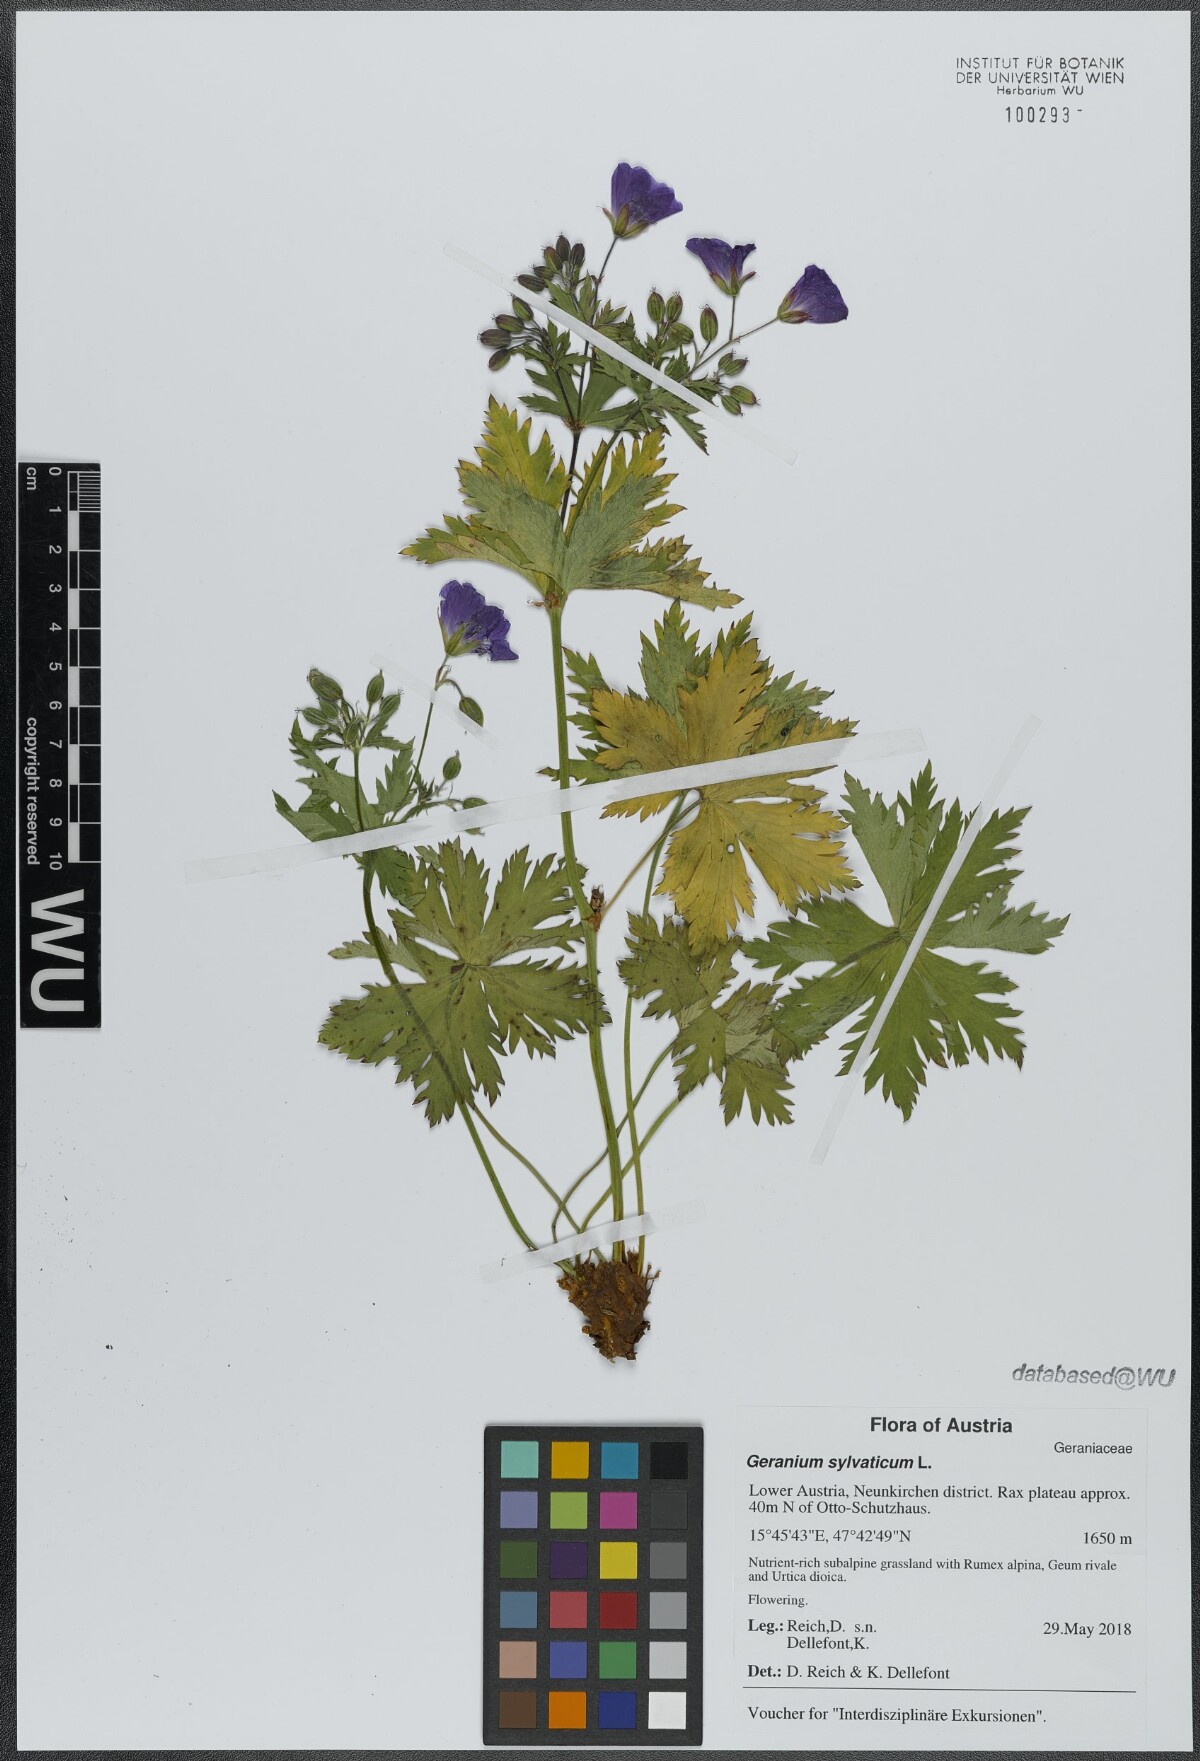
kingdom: Plantae
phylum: Tracheophyta
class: Magnoliopsida
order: Geraniales
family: Geraniaceae
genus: Geranium
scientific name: Geranium sylvaticum
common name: Wood crane's-bill
